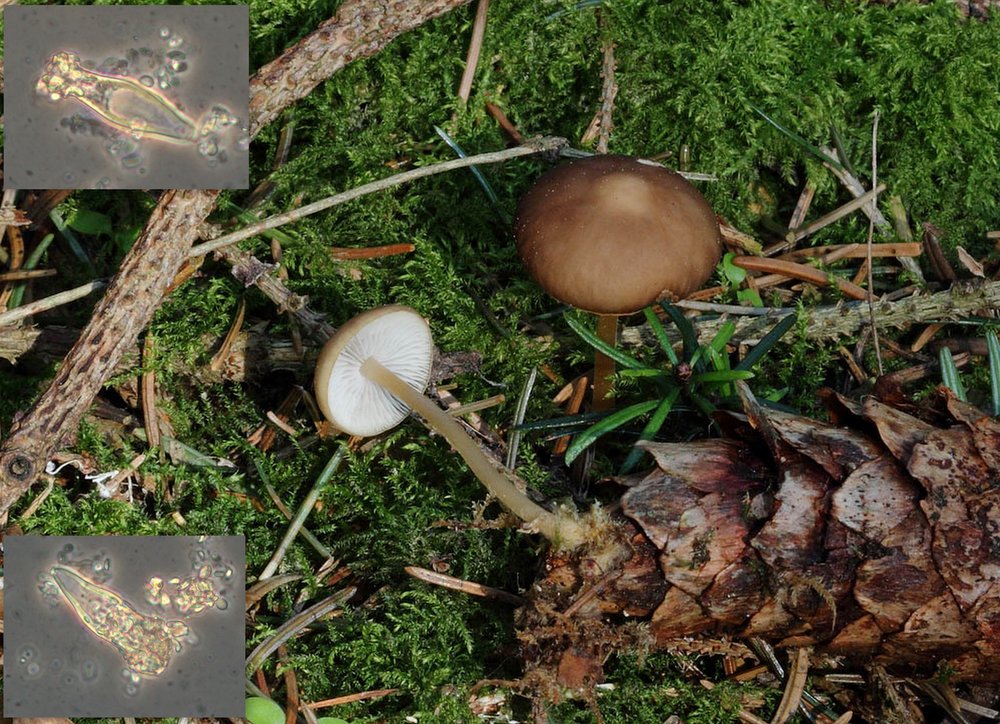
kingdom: Fungi
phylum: Basidiomycota
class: Agaricomycetes
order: Agaricales
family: Physalacriaceae
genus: Strobilurus
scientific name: Strobilurus esculentus
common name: gran-koglehat
